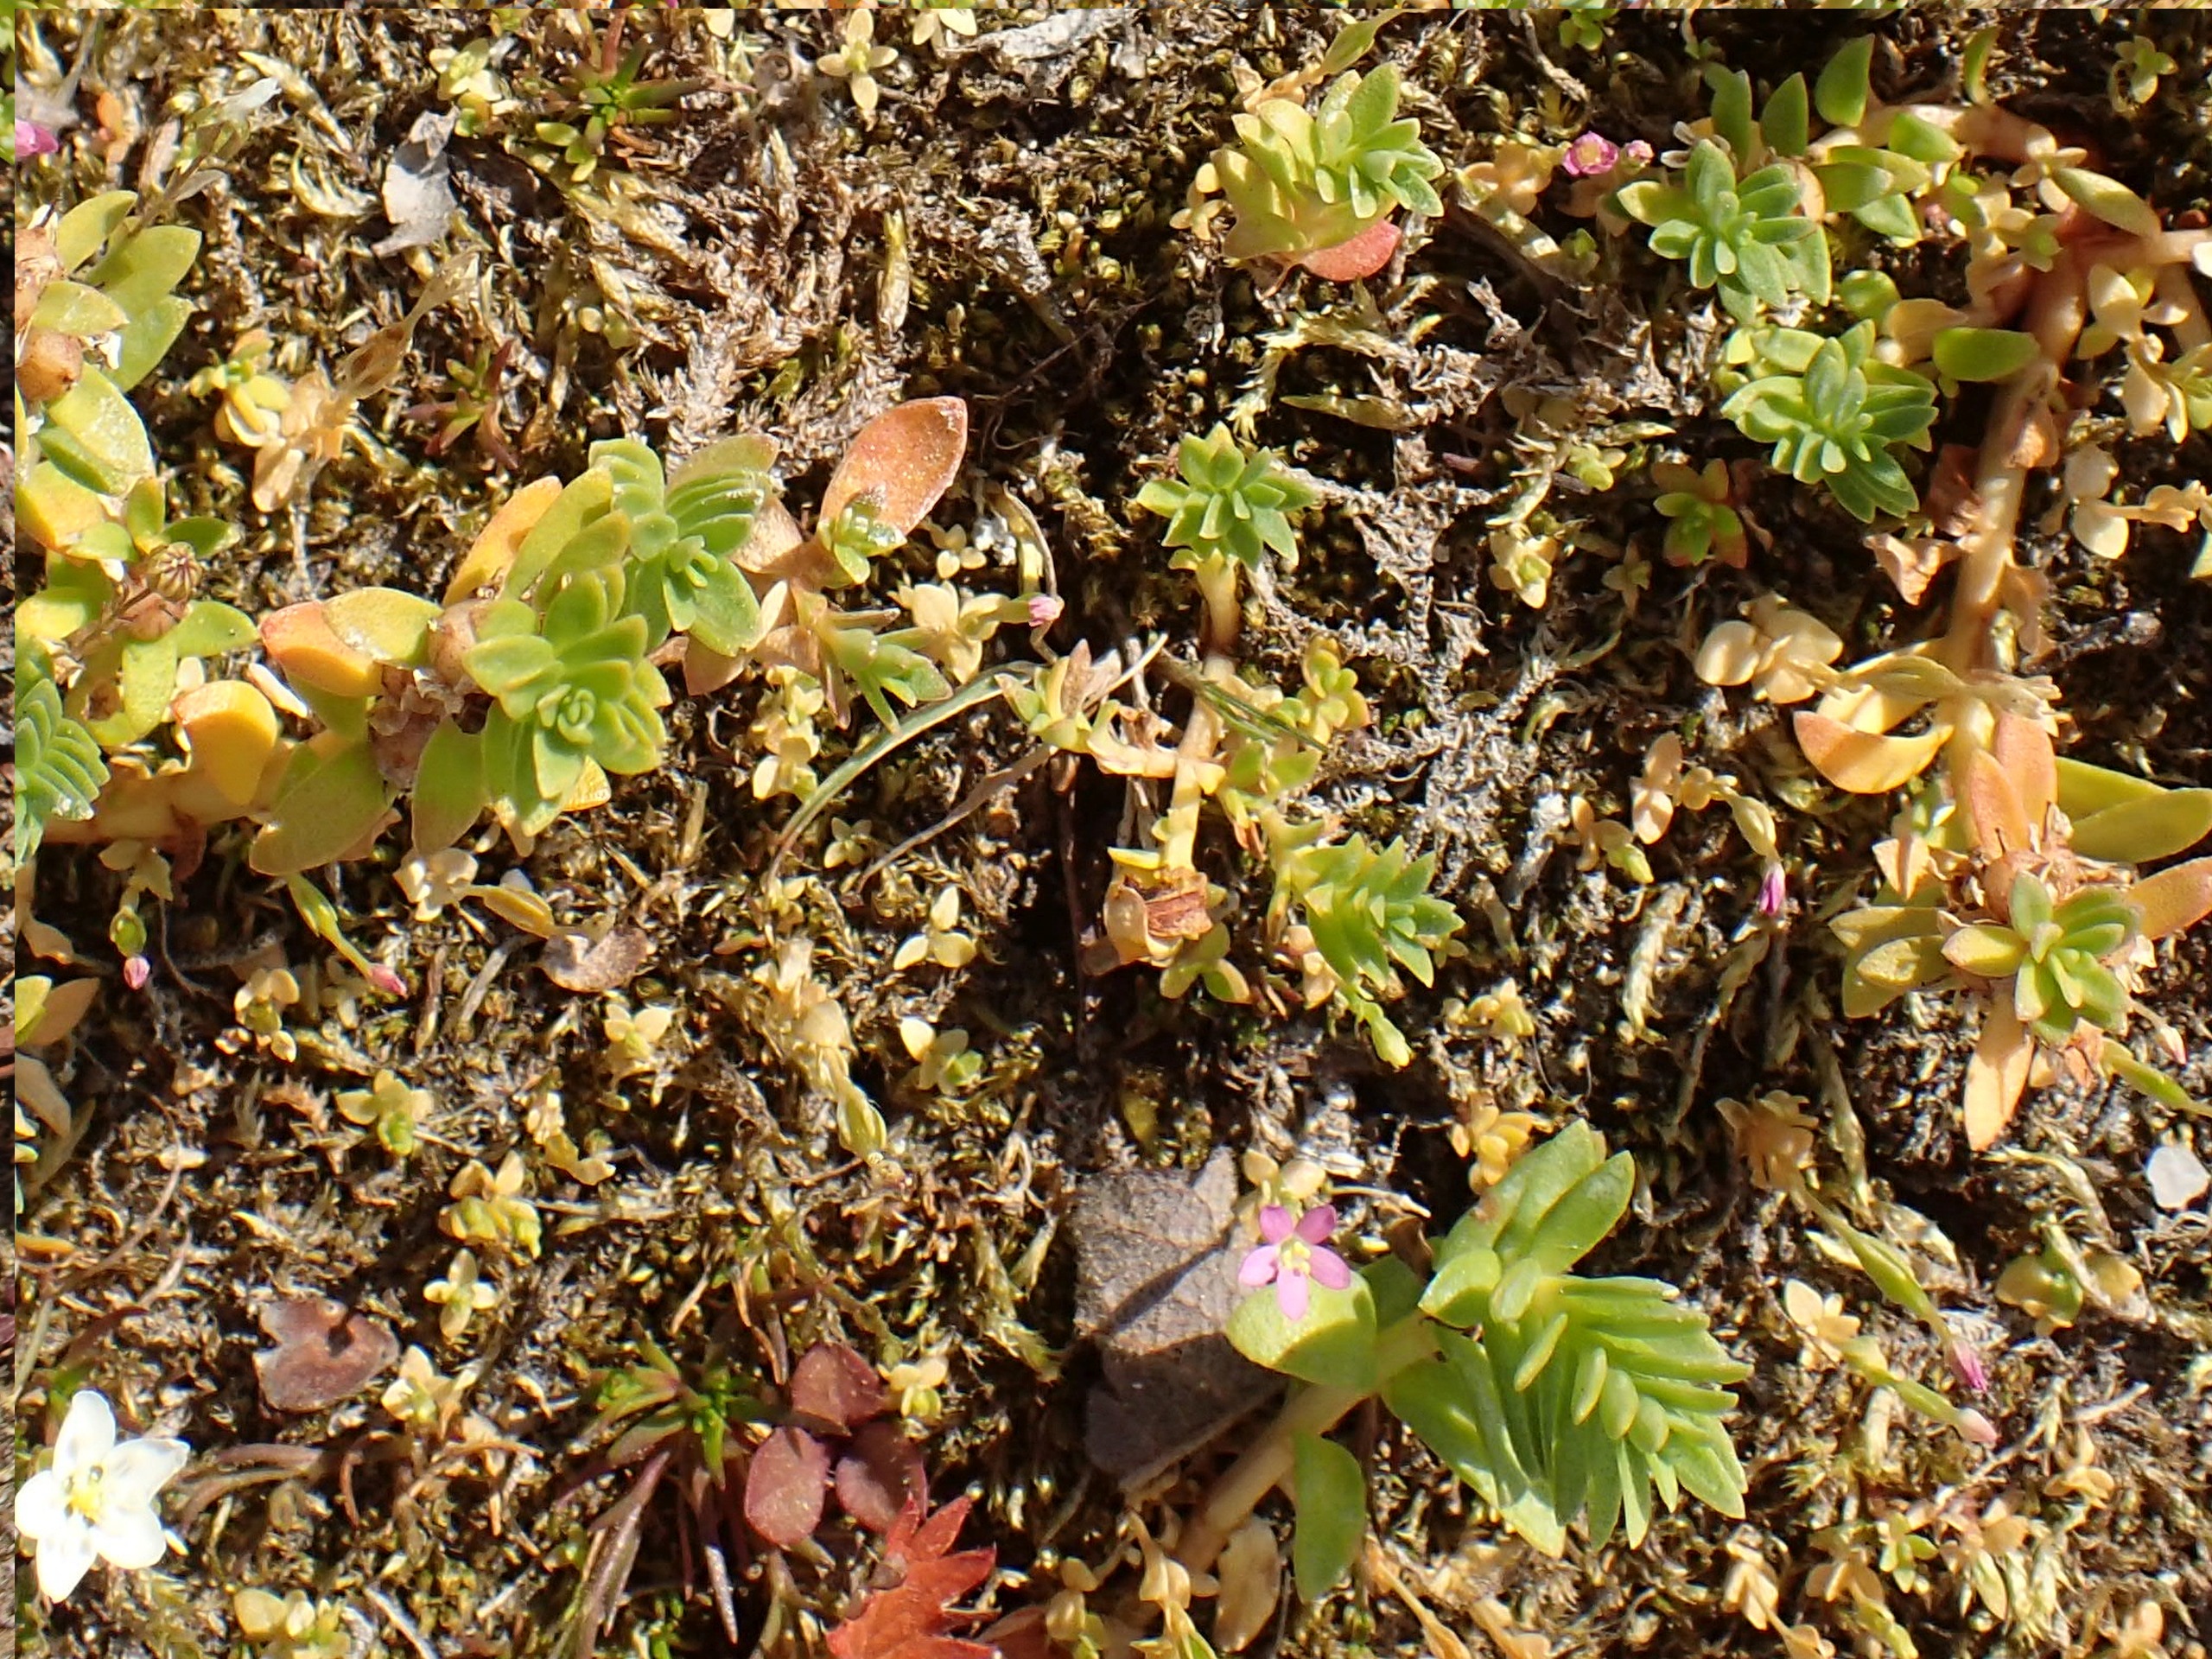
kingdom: Plantae
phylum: Tracheophyta
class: Magnoliopsida
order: Caryophyllales
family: Caryophyllaceae
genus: Honckenya
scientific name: Honckenya peploides
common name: Strandarve
